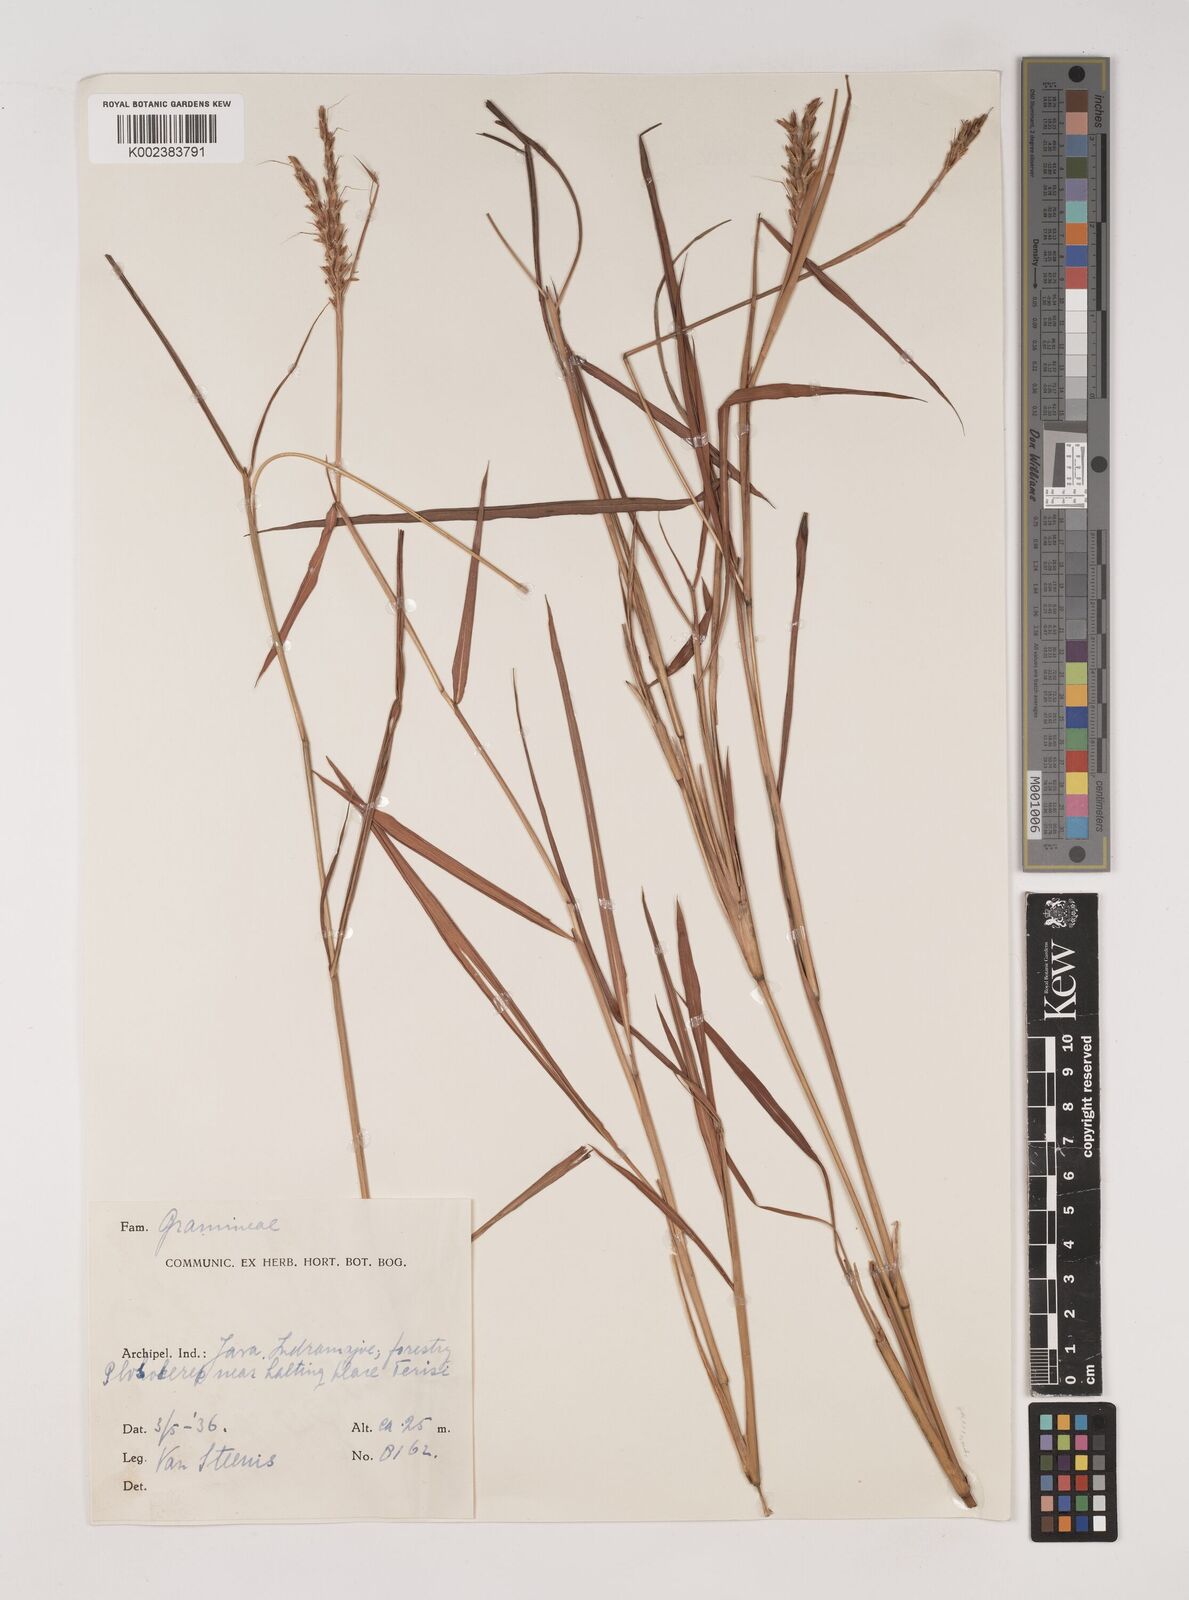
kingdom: Plantae
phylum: Tracheophyta
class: Liliopsida
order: Poales
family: Poaceae
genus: Ischaemum
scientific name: Ischaemum barbatum
